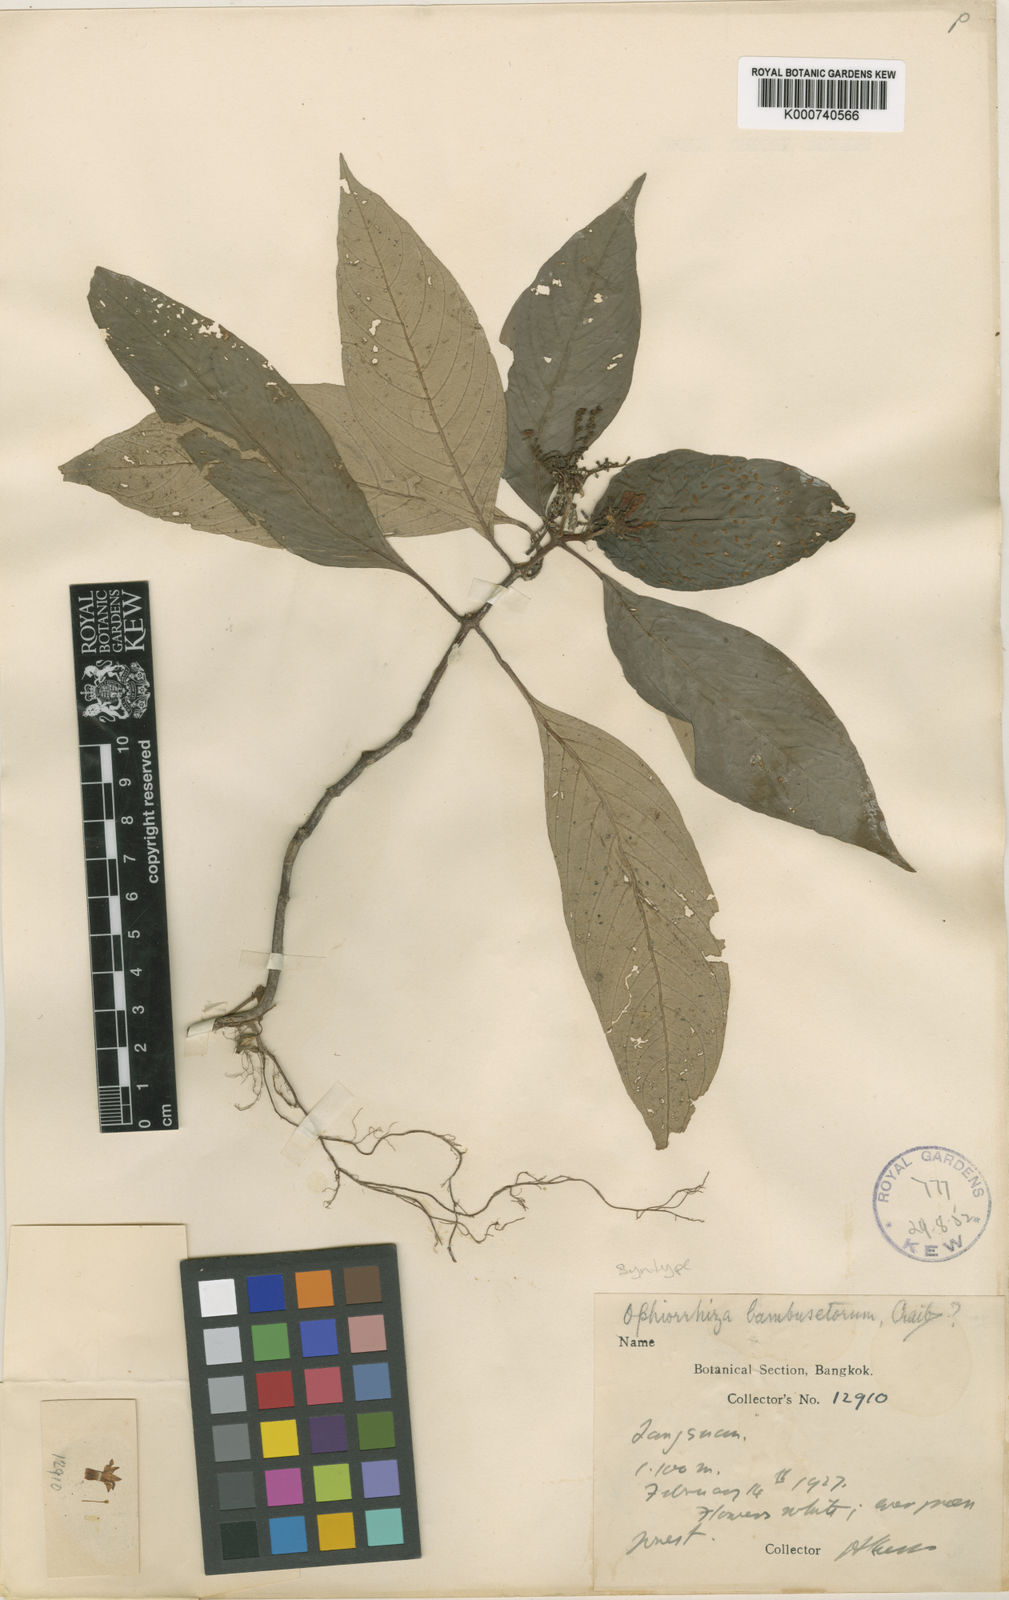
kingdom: Plantae
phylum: Tracheophyta
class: Magnoliopsida
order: Gentianales
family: Rubiaceae
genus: Ophiorrhiza
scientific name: Ophiorrhiza erubescens
